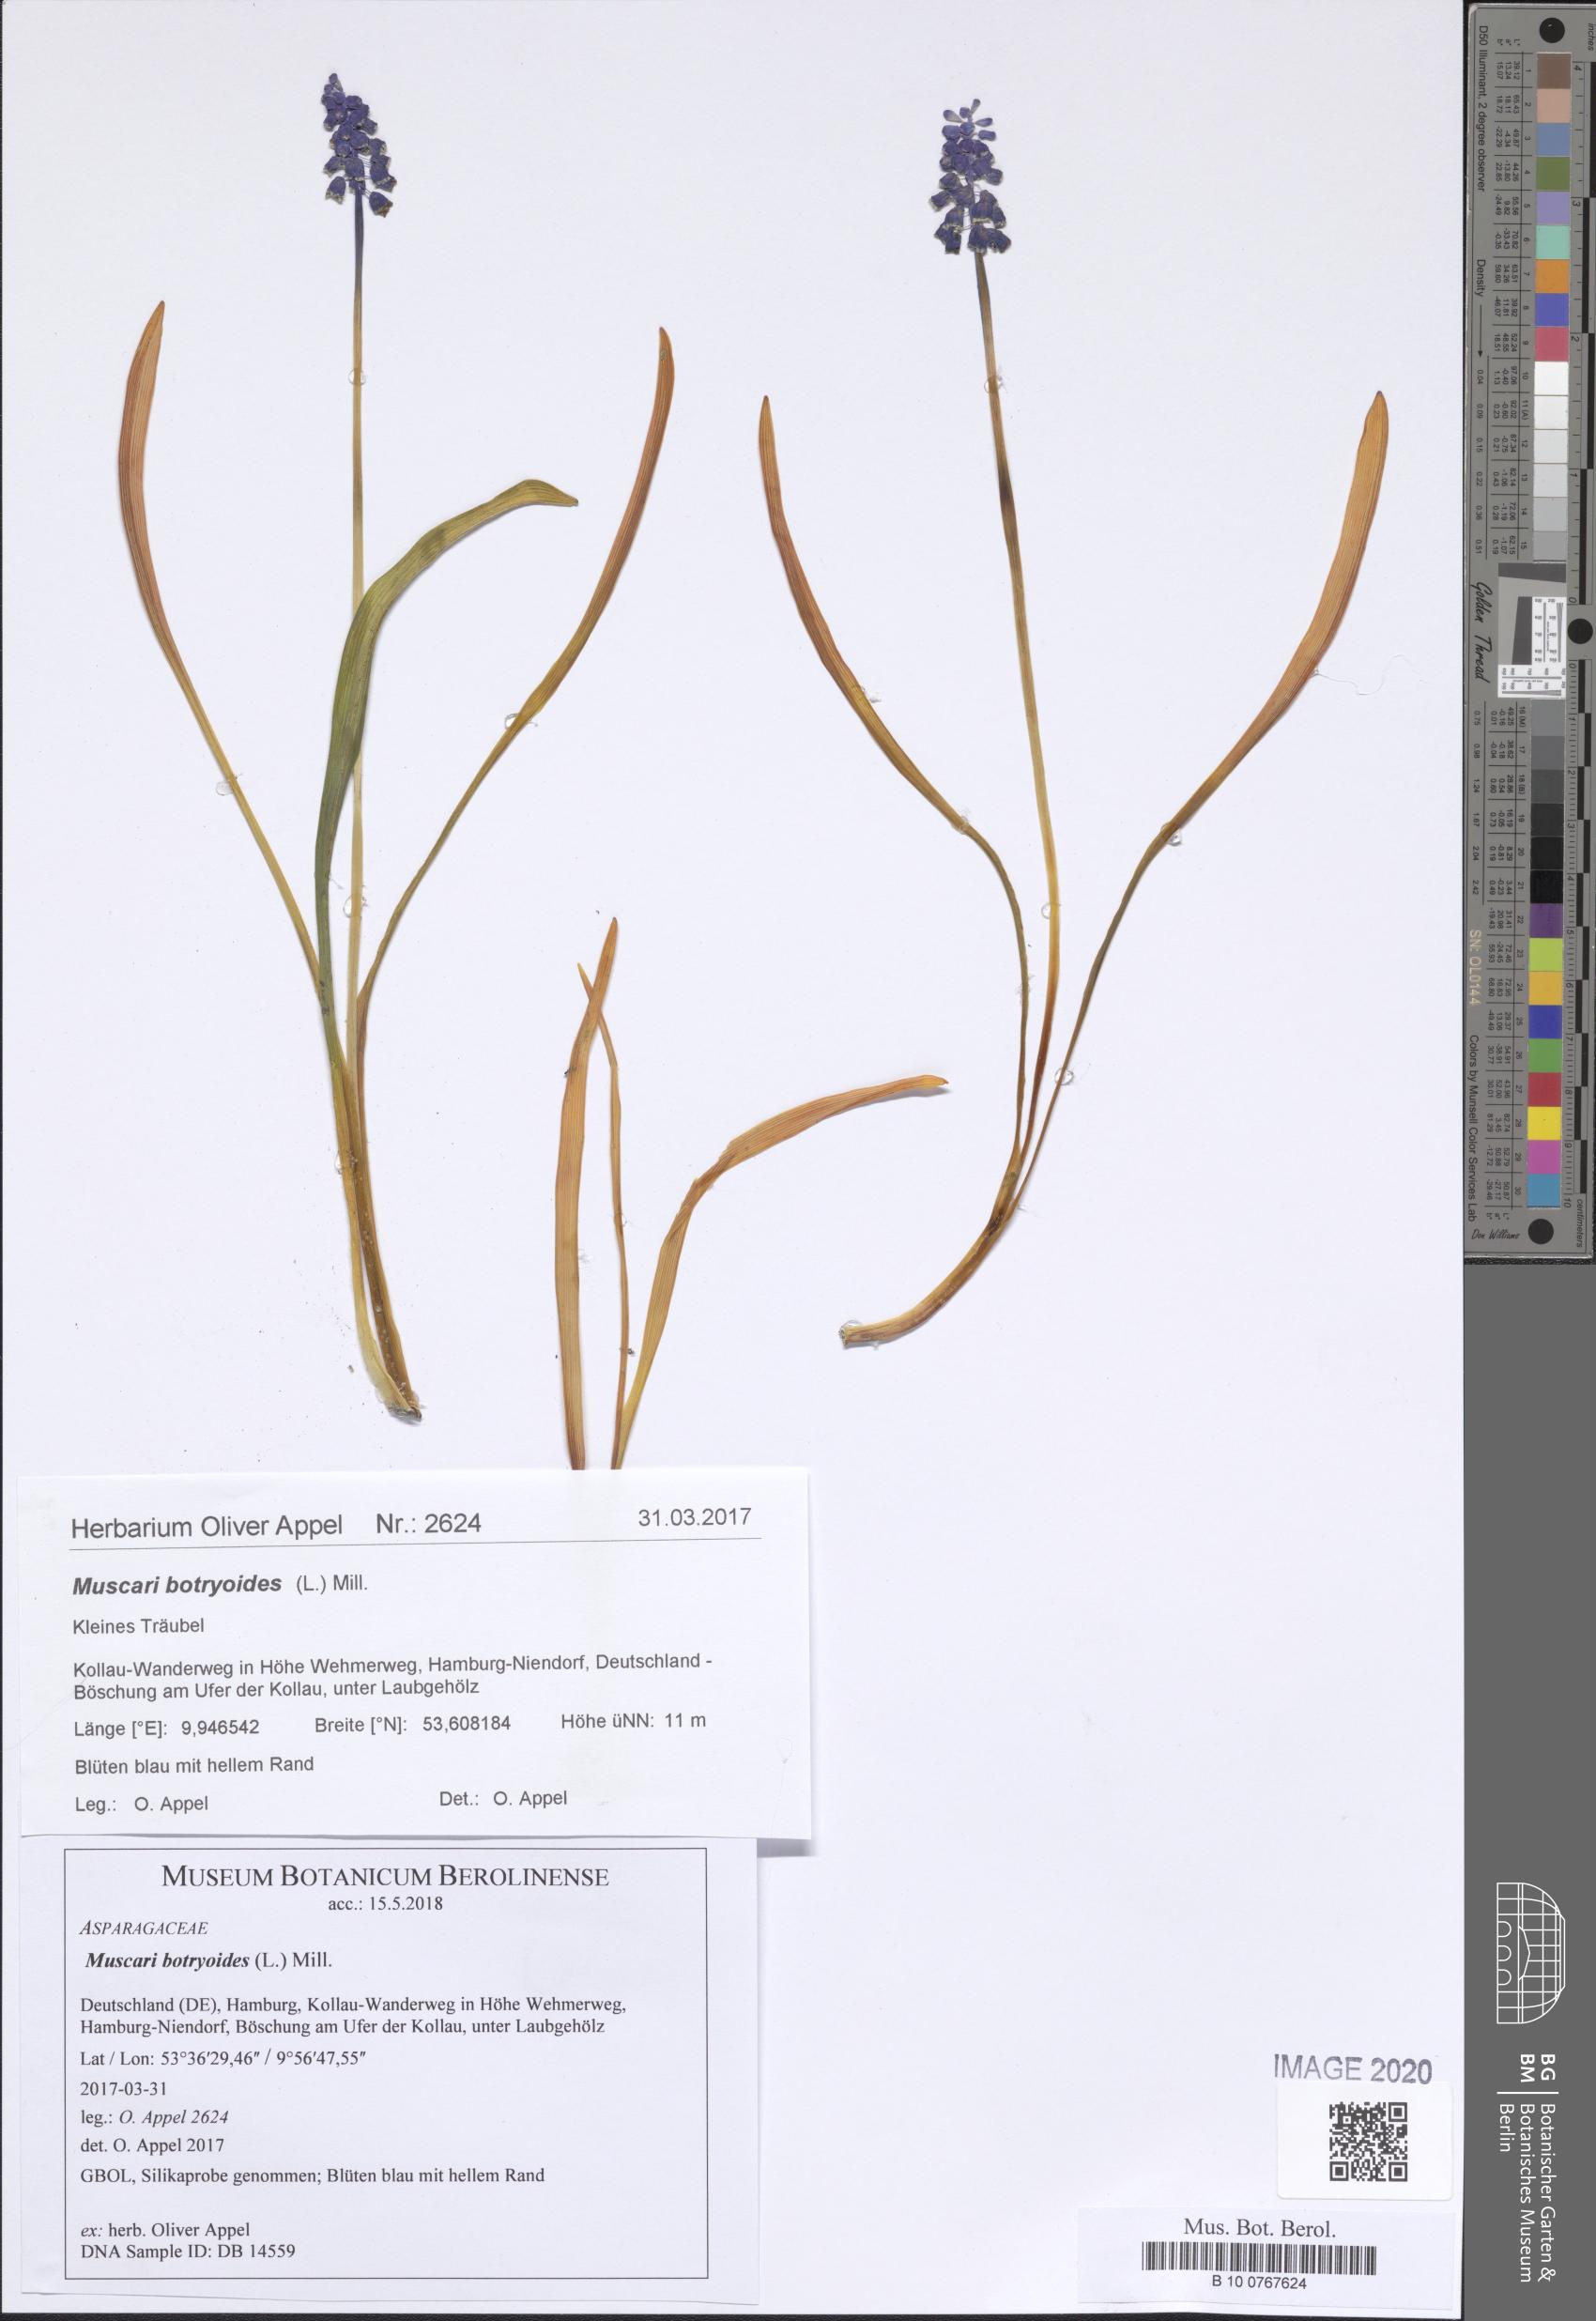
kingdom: Plantae
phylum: Tracheophyta
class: Liliopsida
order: Asparagales
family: Asparagaceae
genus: Muscari
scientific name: Muscari botryoides
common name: Compact grape-hyacinth
